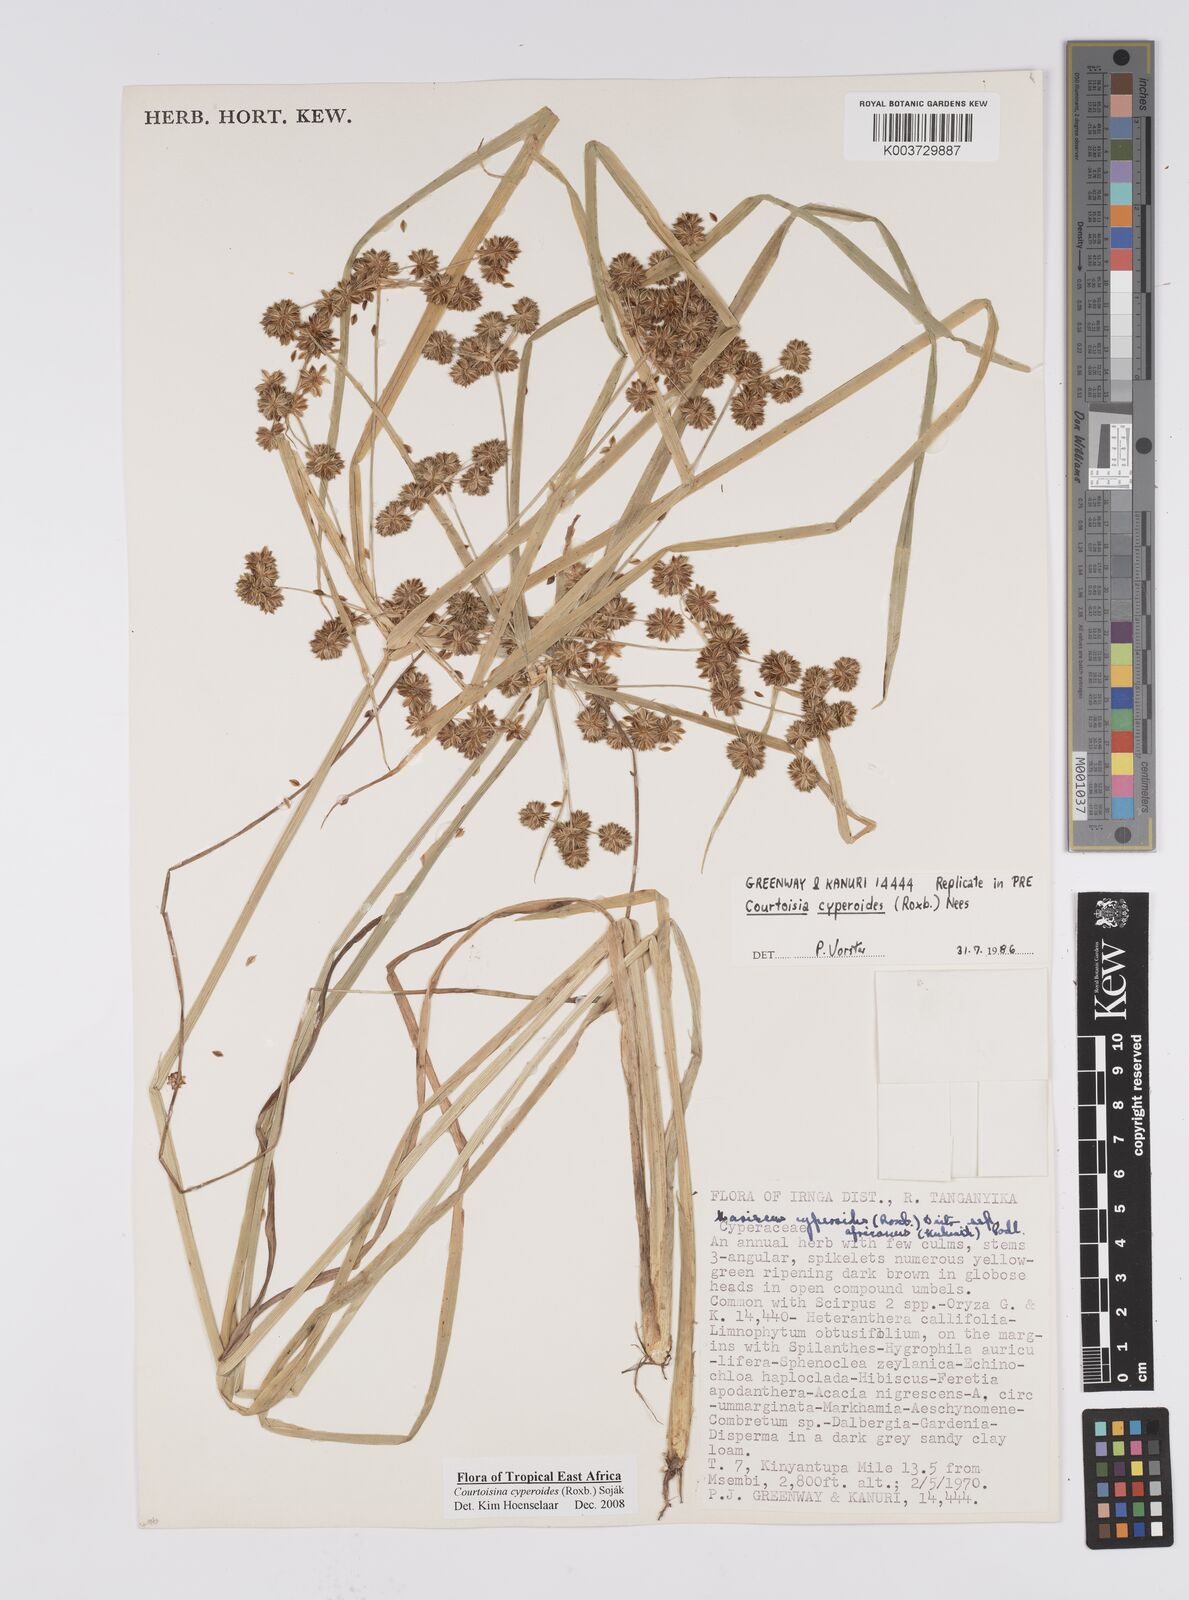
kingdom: Plantae
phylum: Tracheophyta
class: Liliopsida
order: Poales
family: Cyperaceae
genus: Cyperus
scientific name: Cyperus cyperoides
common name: Pacific island flat sedge
